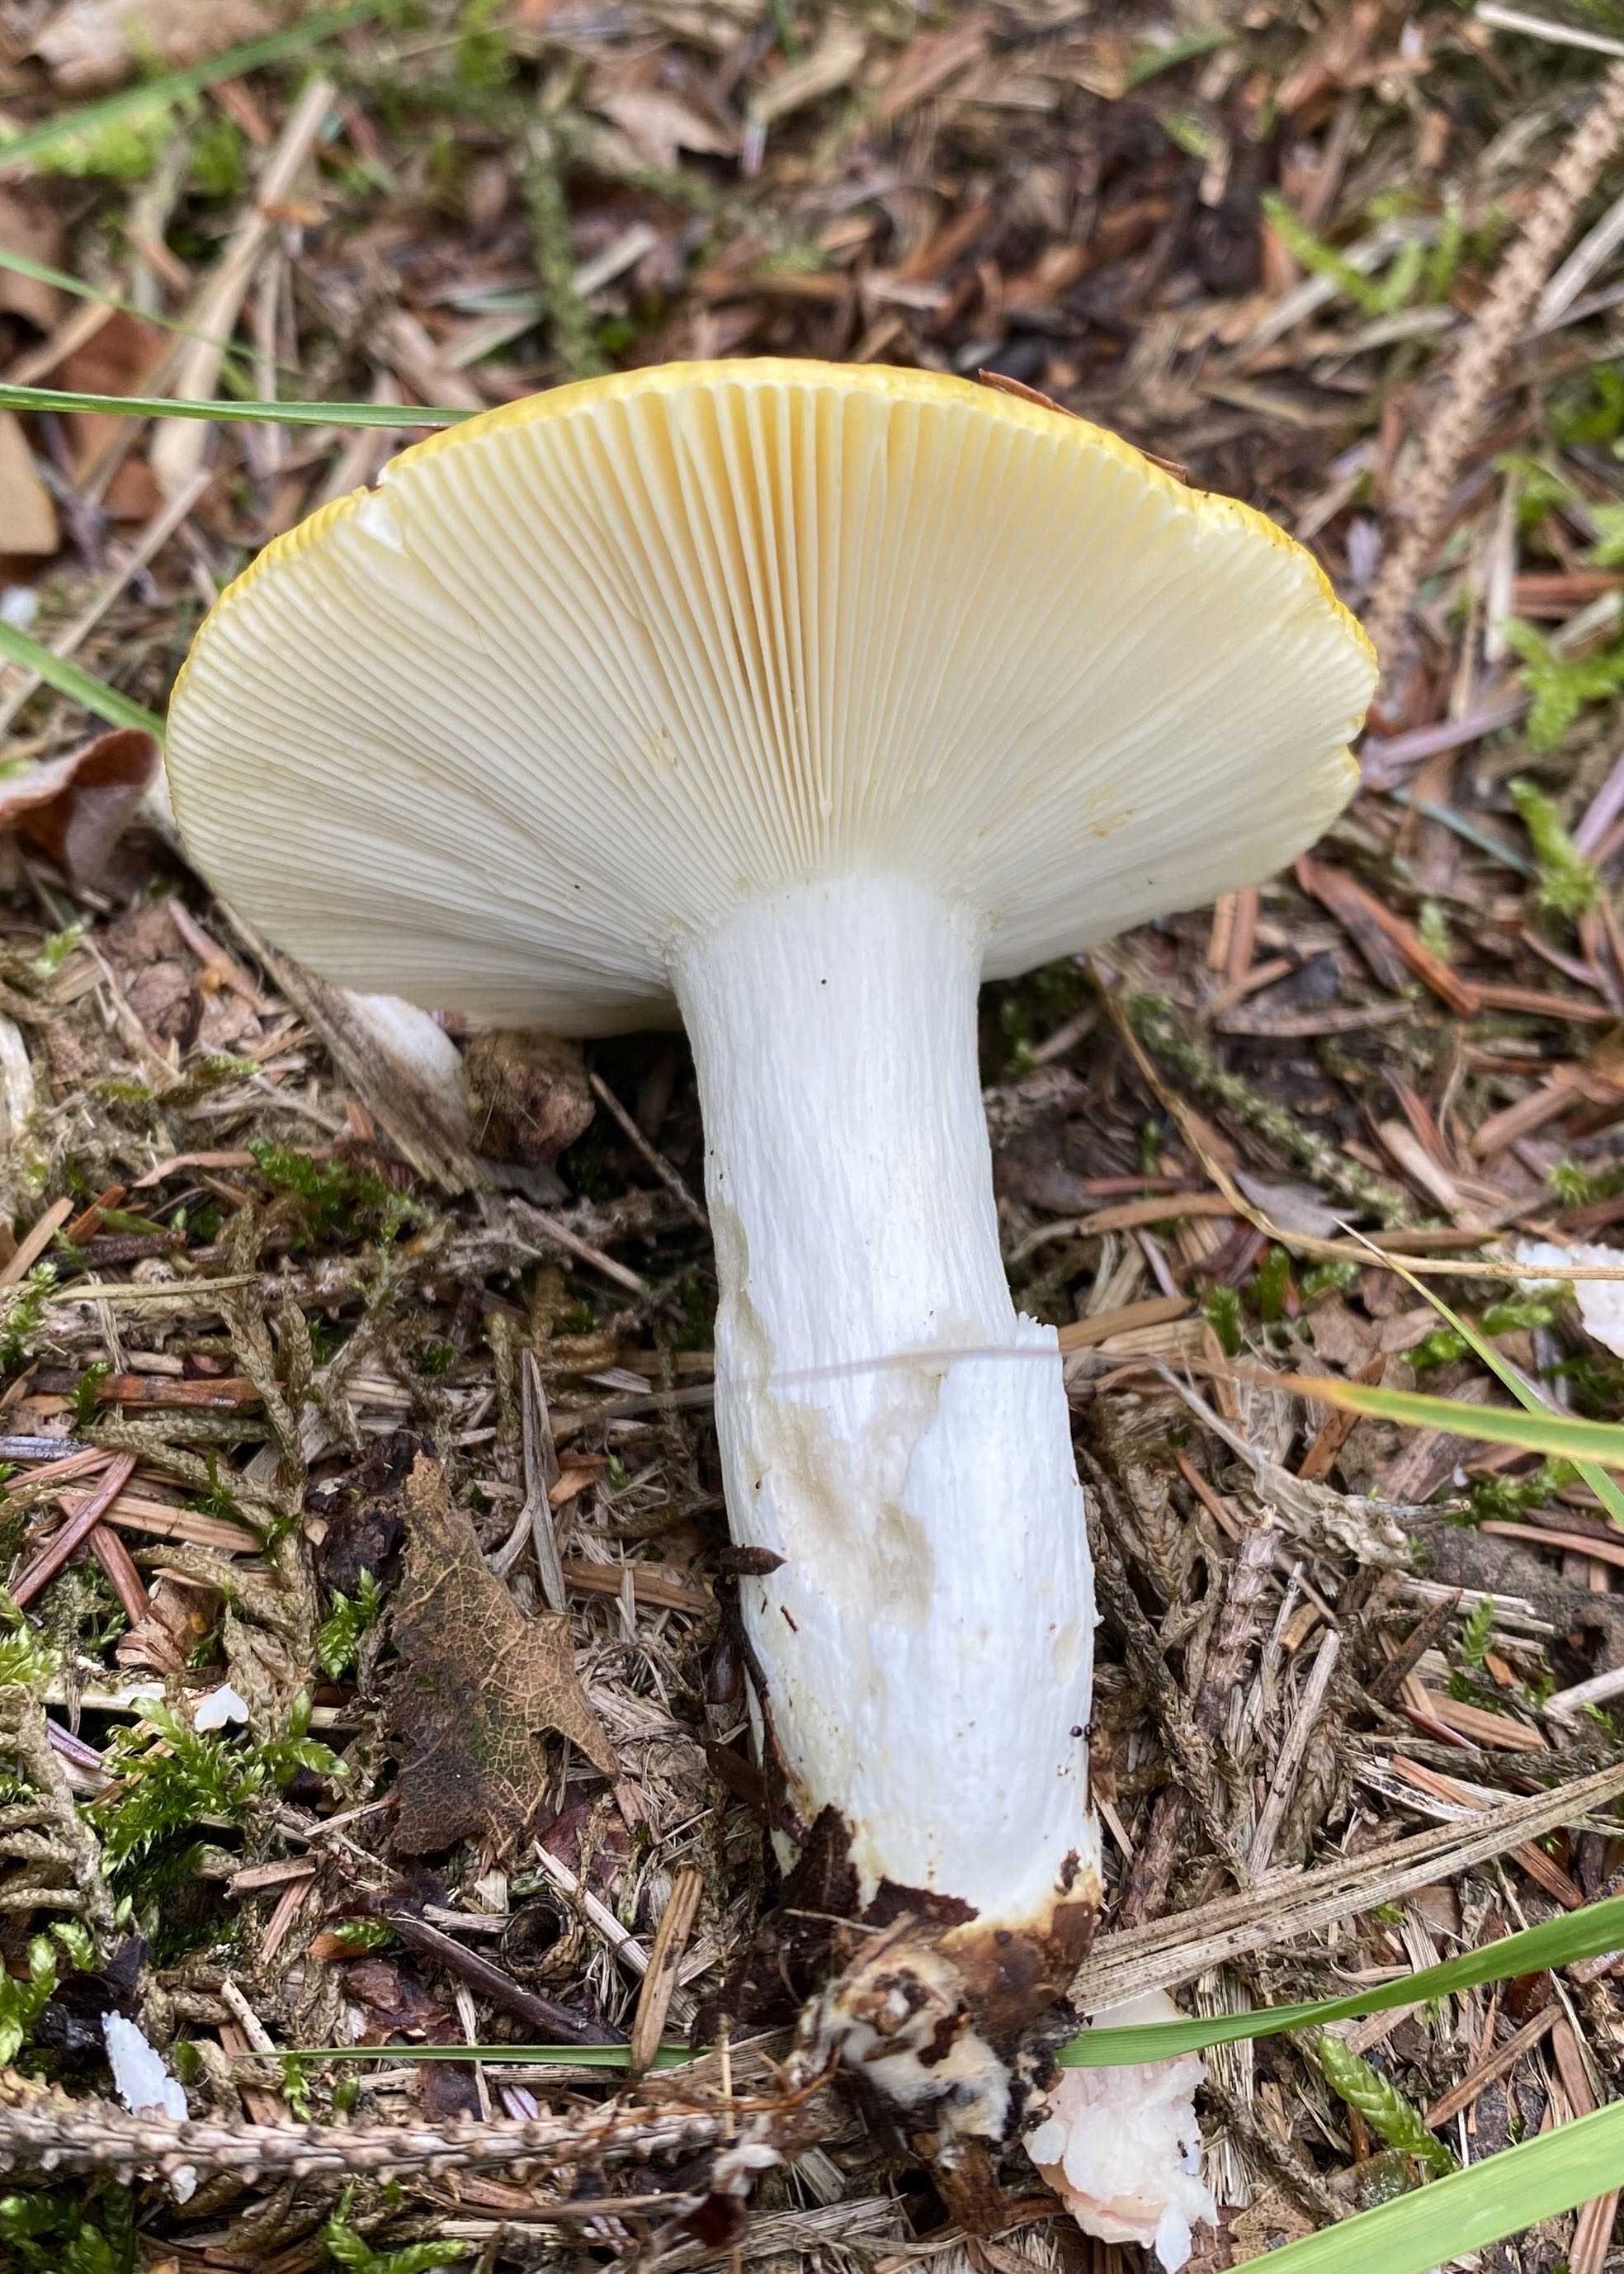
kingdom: Fungi
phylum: Basidiomycota
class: Agaricomycetes
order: Russulales
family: Russulaceae
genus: Russula
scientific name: Russula claroflava
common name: birke-skørhat
